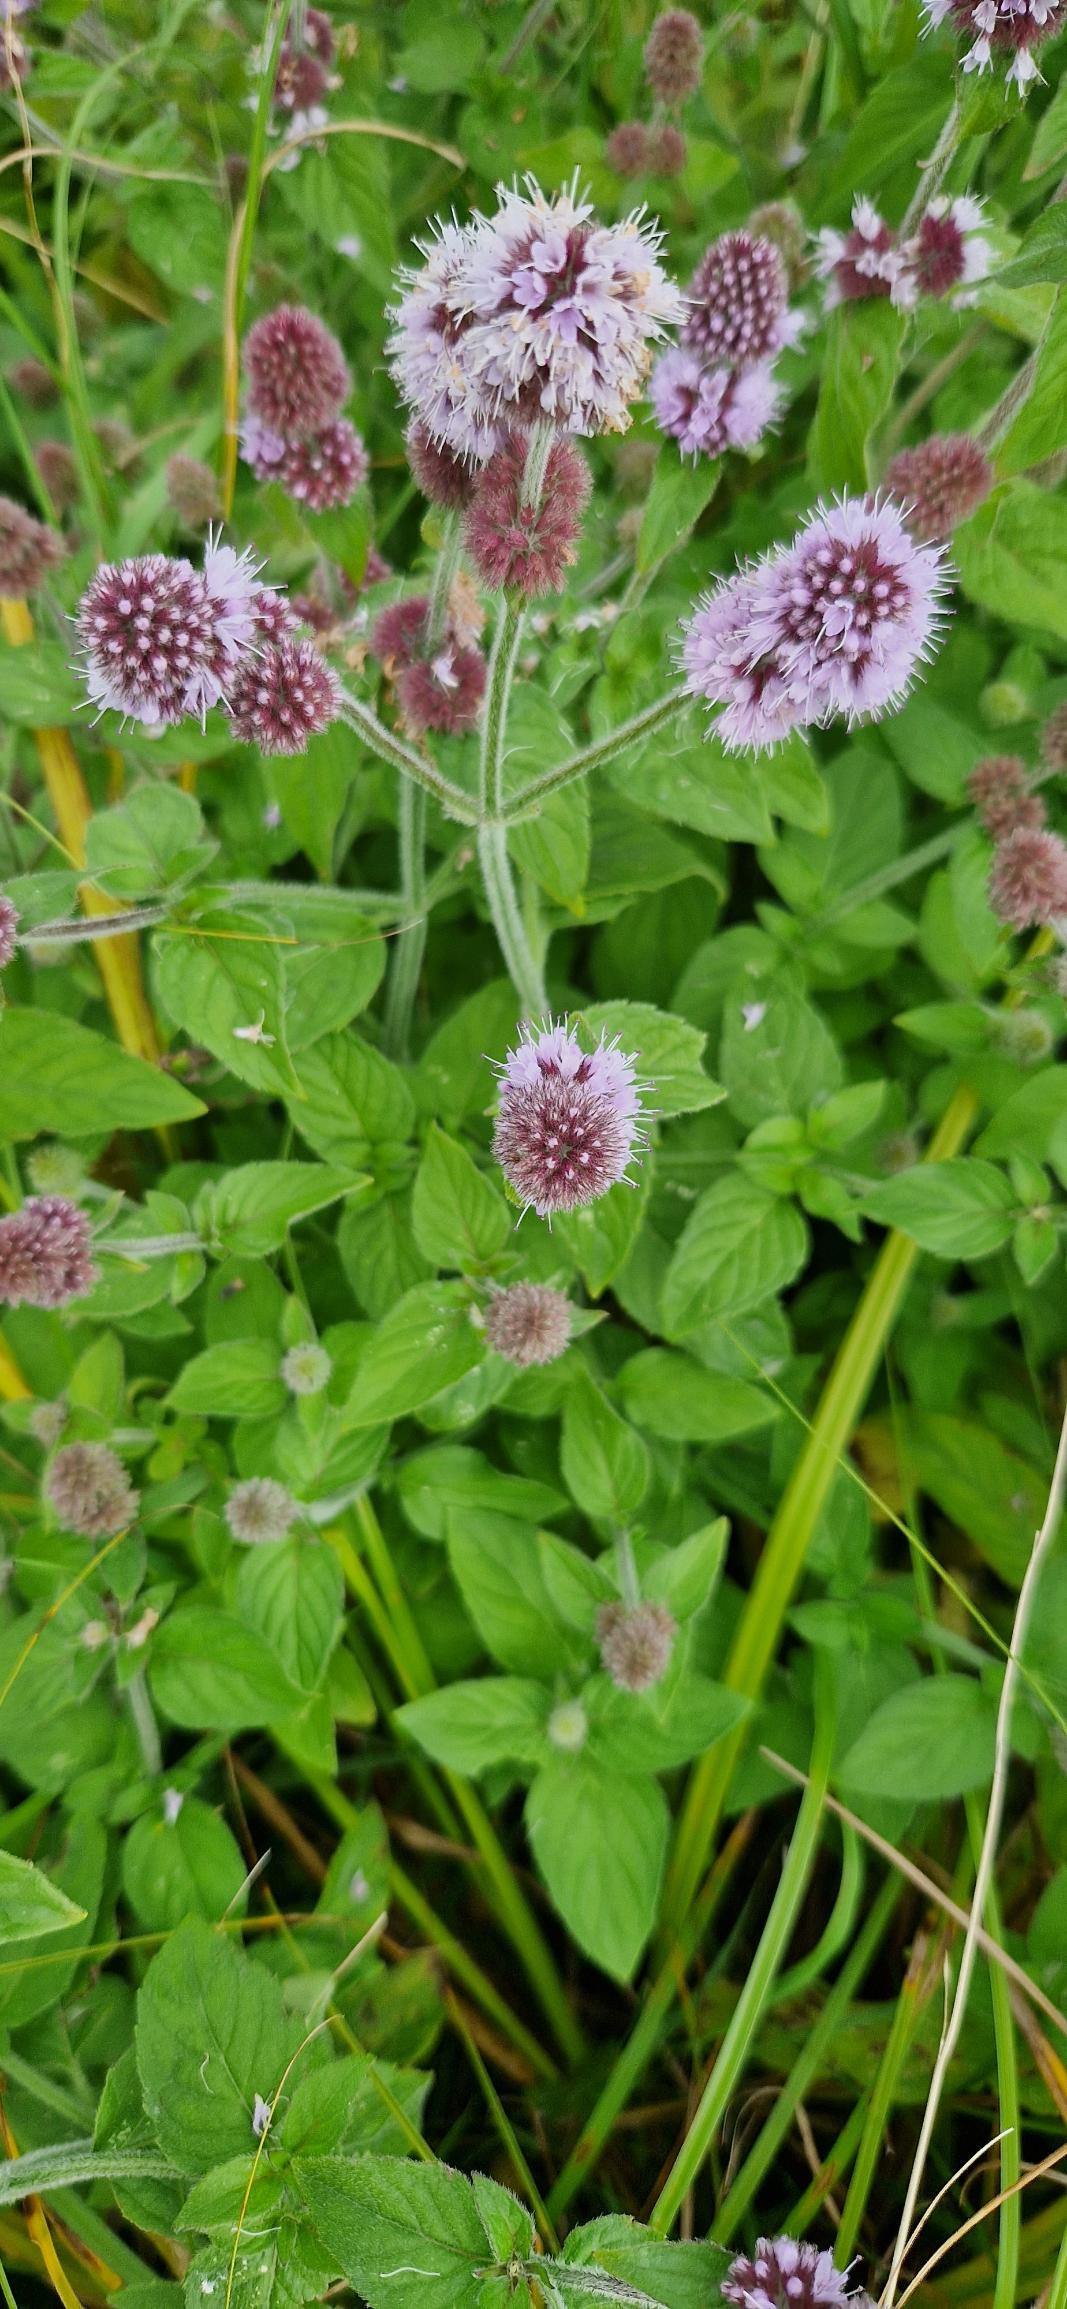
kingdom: Plantae
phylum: Tracheophyta
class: Magnoliopsida
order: Lamiales
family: Lamiaceae
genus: Mentha
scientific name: Mentha aquatica
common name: Vand-mynte
